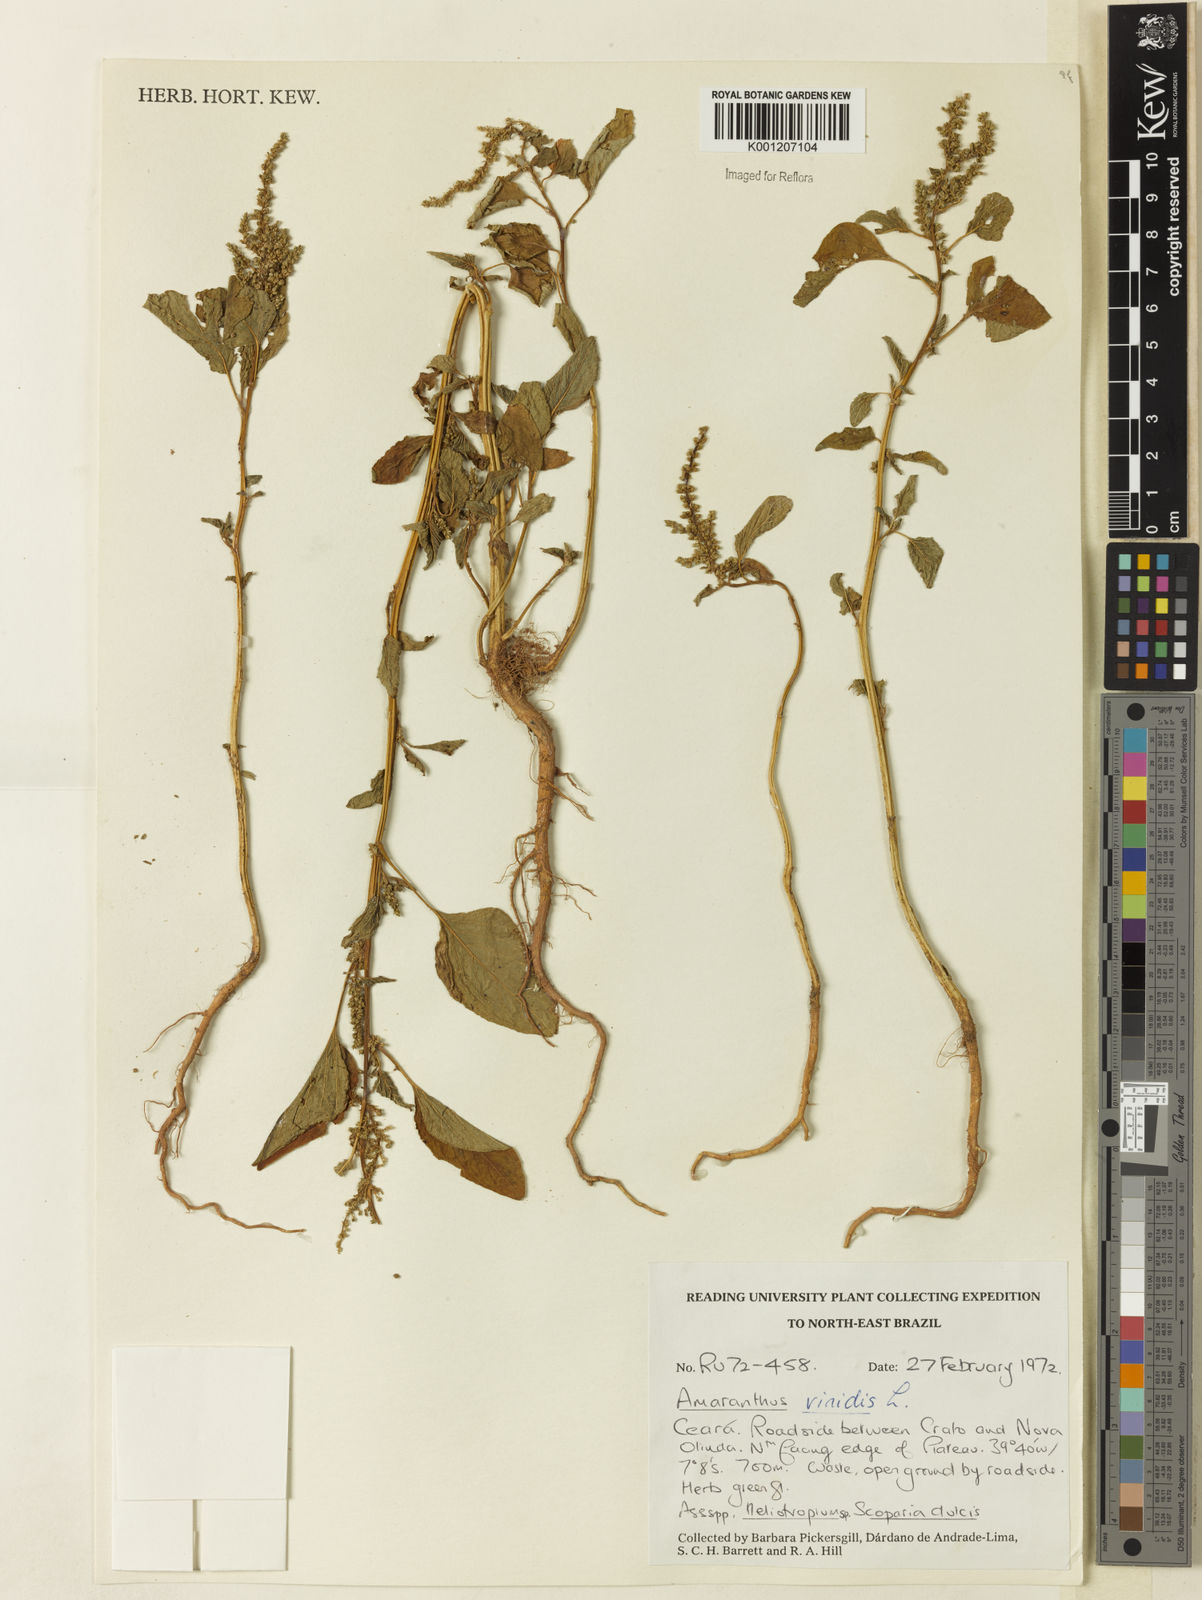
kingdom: Plantae
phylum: Tracheophyta
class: Magnoliopsida
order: Caryophyllales
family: Amaranthaceae
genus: Amaranthus
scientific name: Amaranthus viridis
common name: Slender amaranth
